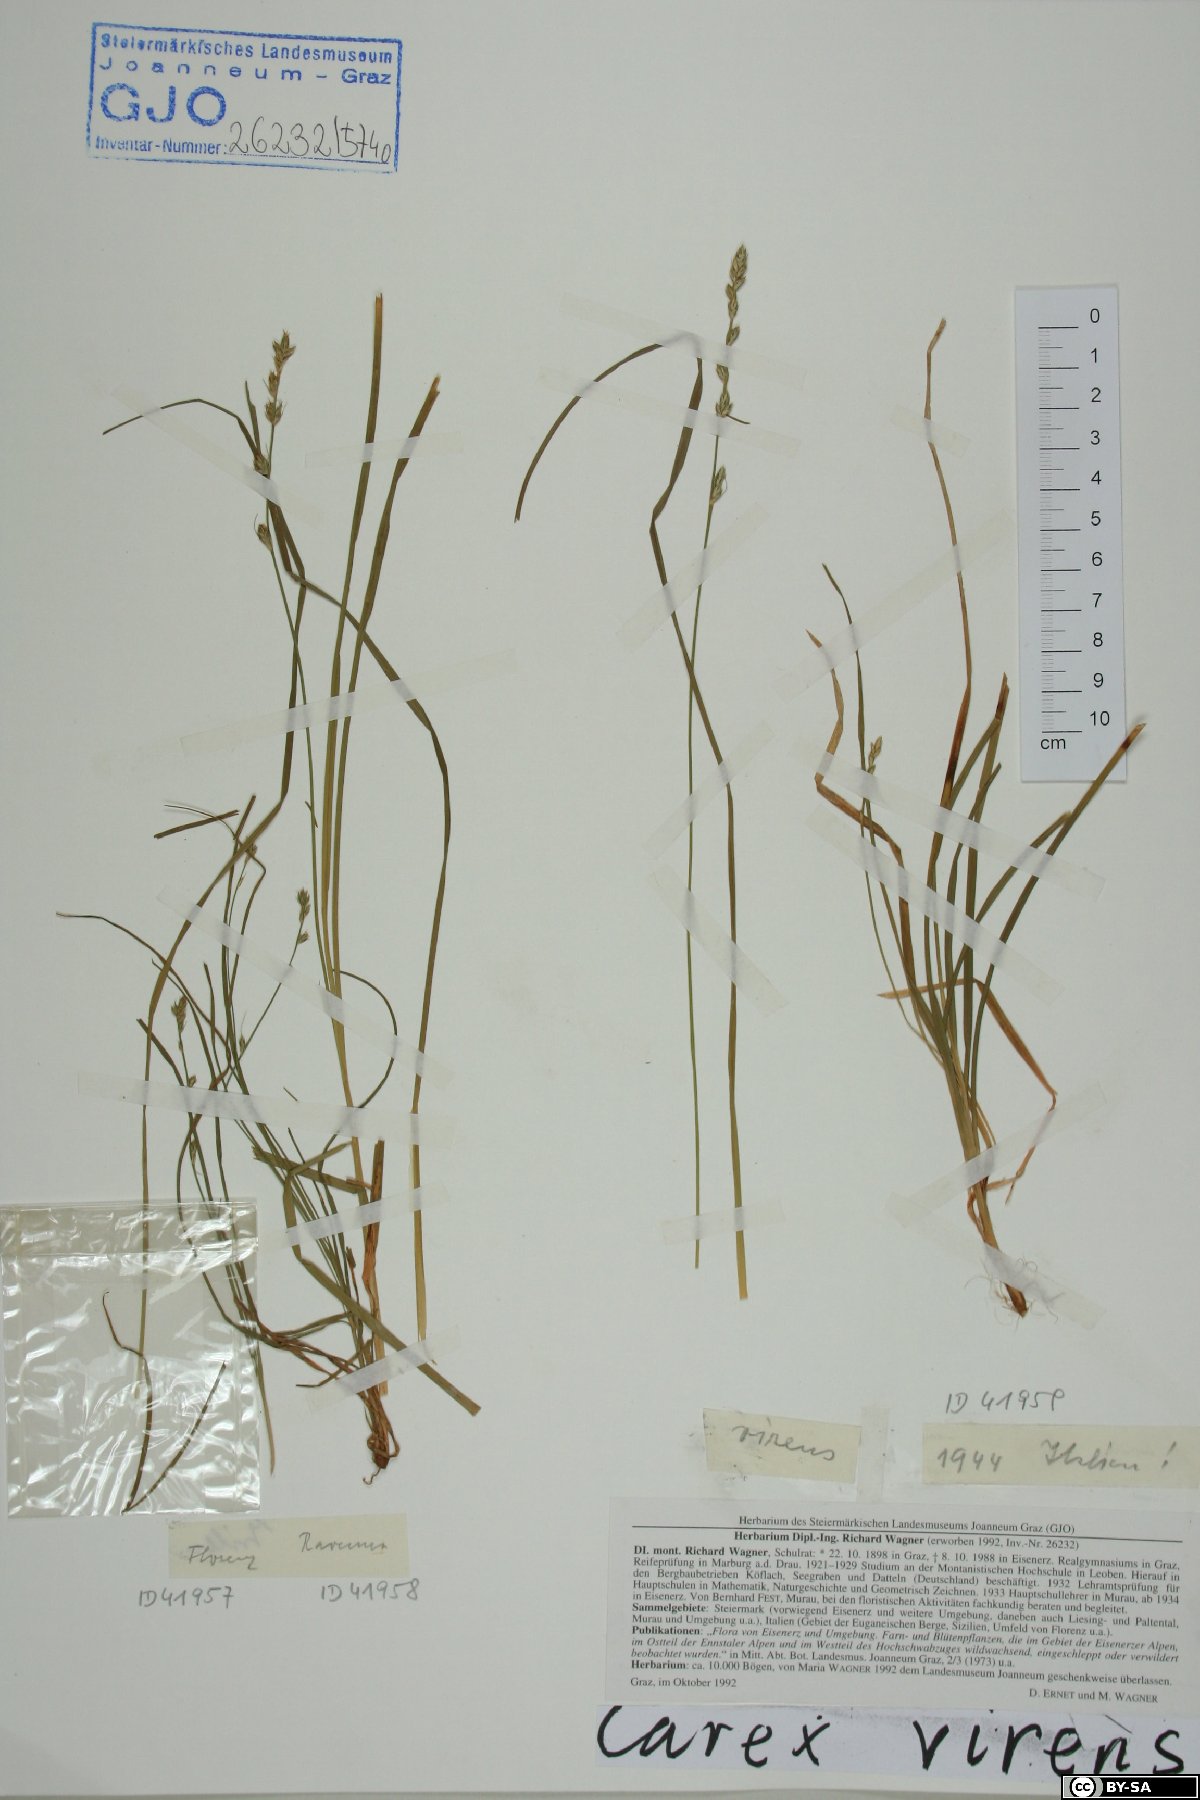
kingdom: Plantae
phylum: Tracheophyta
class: Liliopsida
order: Poales
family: Cyperaceae
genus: Carex
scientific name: Carex divulsa
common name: Grassland sedge
